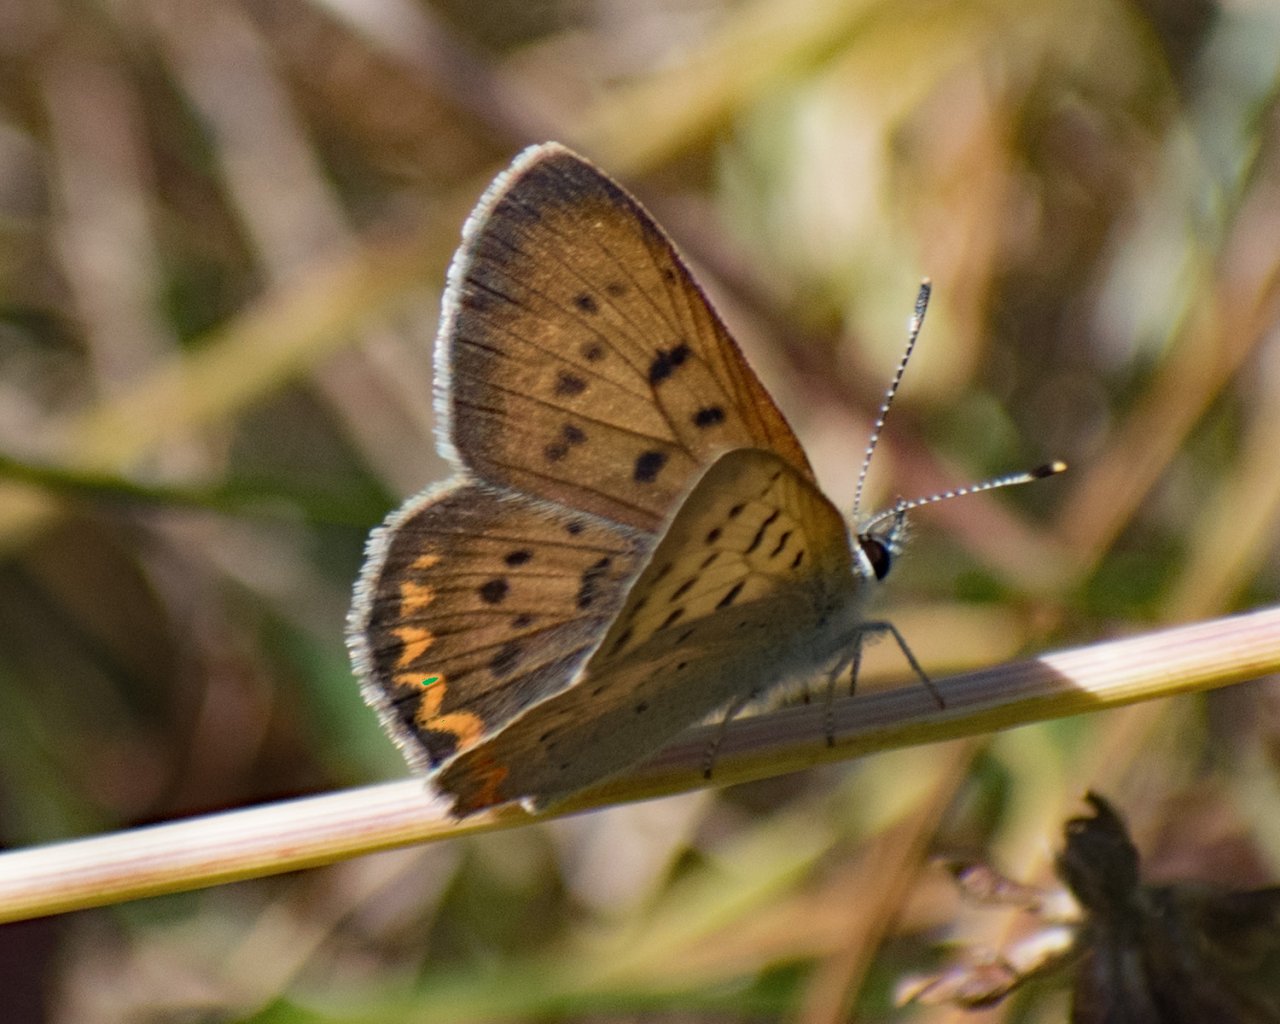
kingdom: Animalia
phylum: Arthropoda
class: Insecta
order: Lepidoptera
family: Sesiidae
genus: Sesia
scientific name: Sesia Lycaena helloides
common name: Purplish Copper
